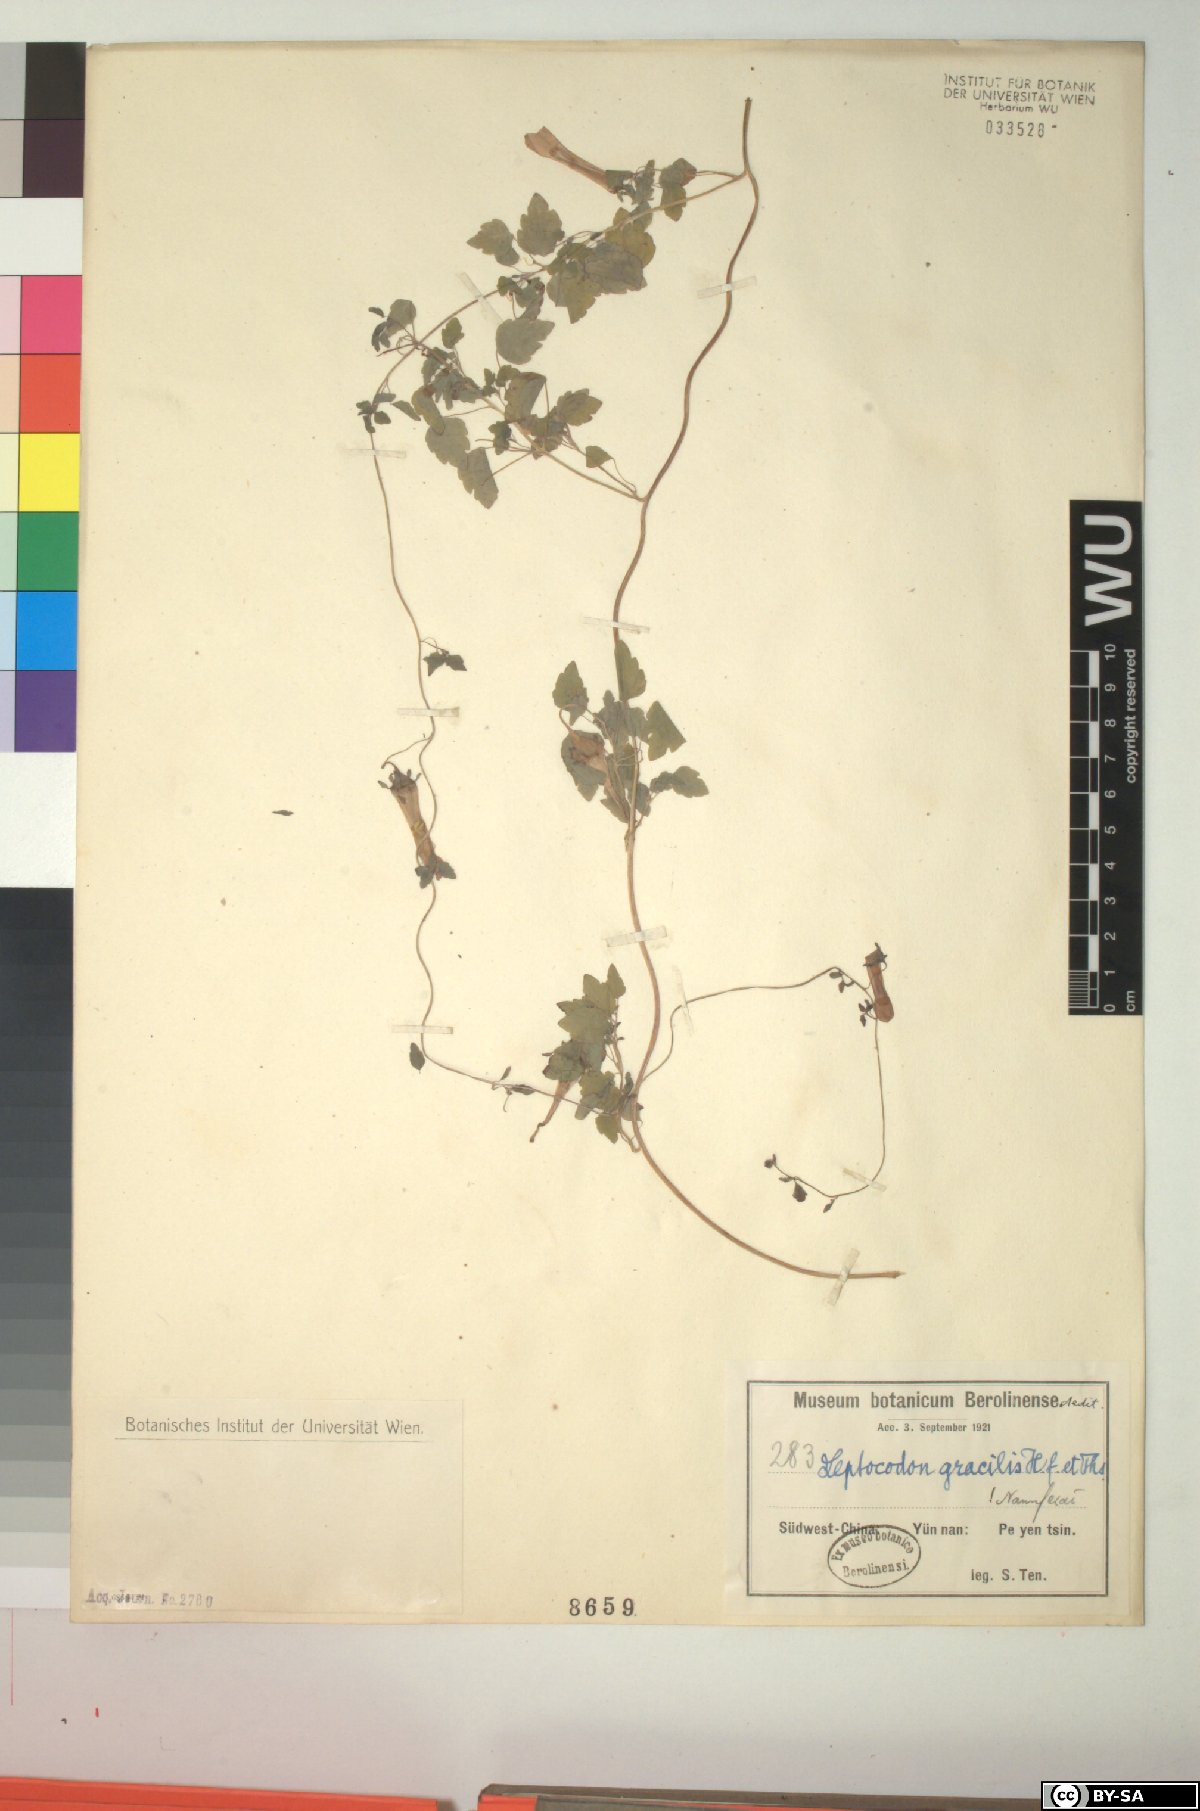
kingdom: Plantae
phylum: Tracheophyta
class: Magnoliopsida
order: Asterales
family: Campanulaceae
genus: Codonopsis
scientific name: Codonopsis gracilis
